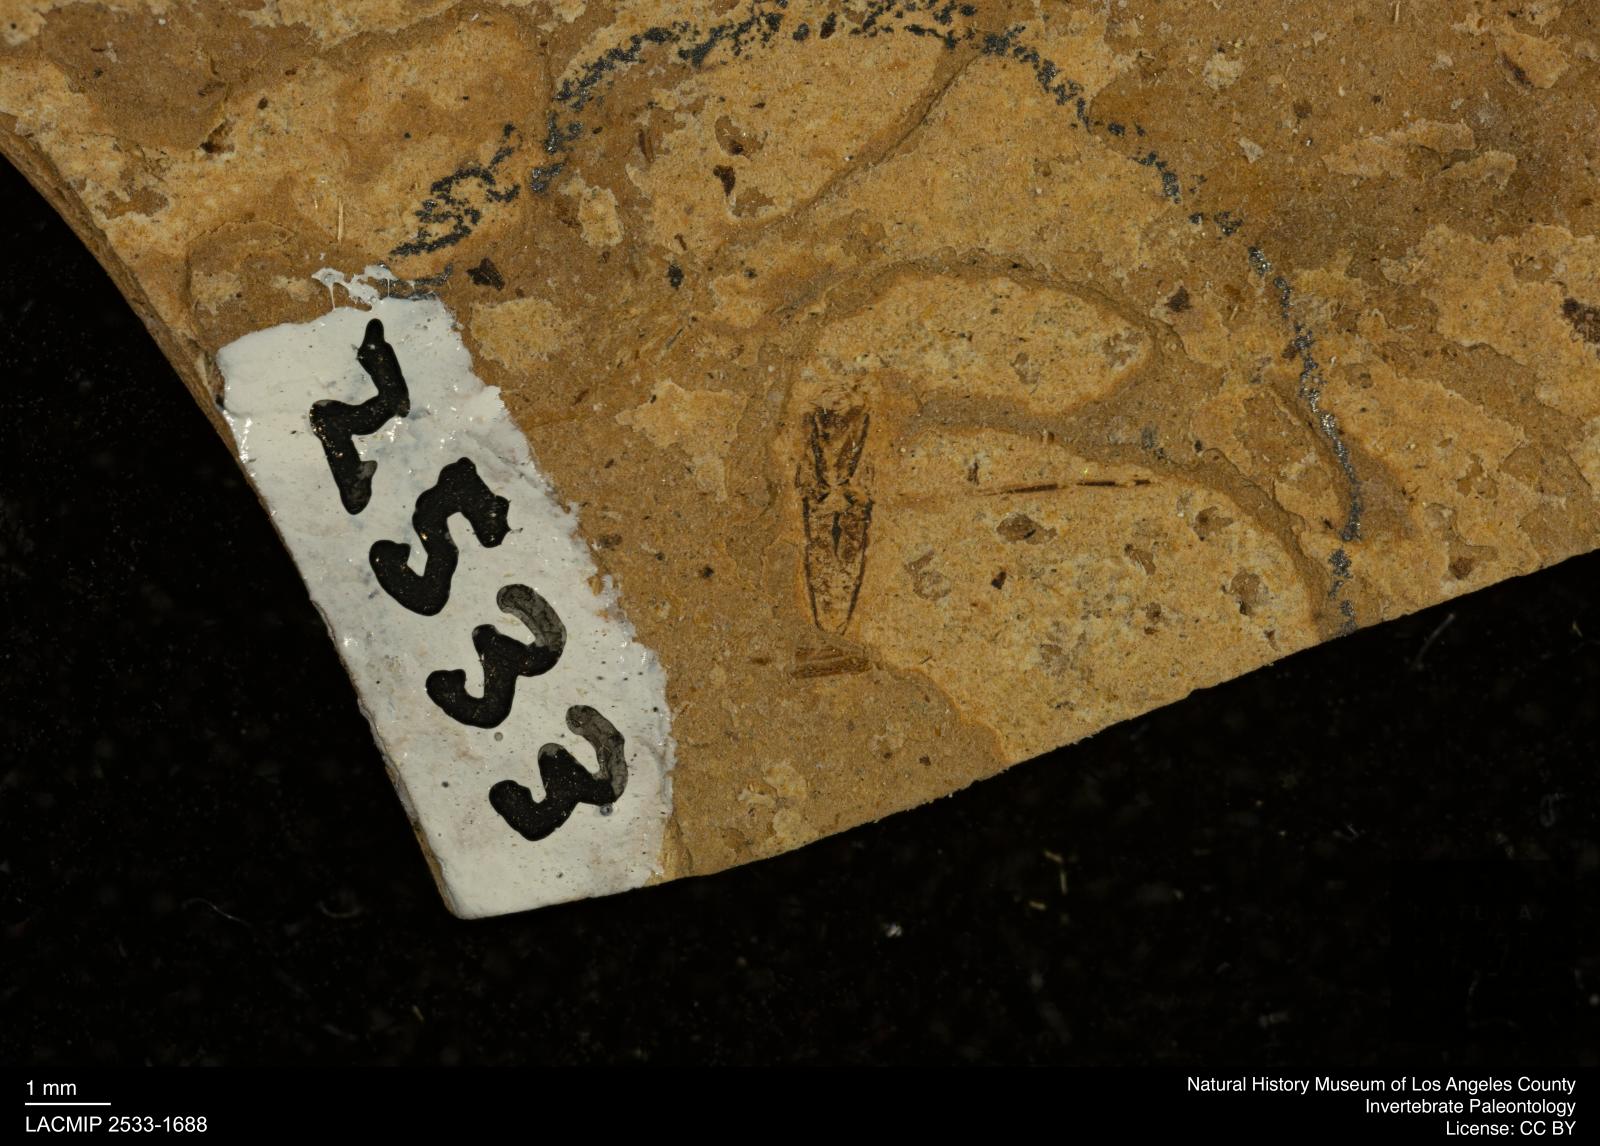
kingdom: Animalia
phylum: Arthropoda
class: Insecta
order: Hemiptera
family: Notonectidae
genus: Notonecta
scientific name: Notonecta
